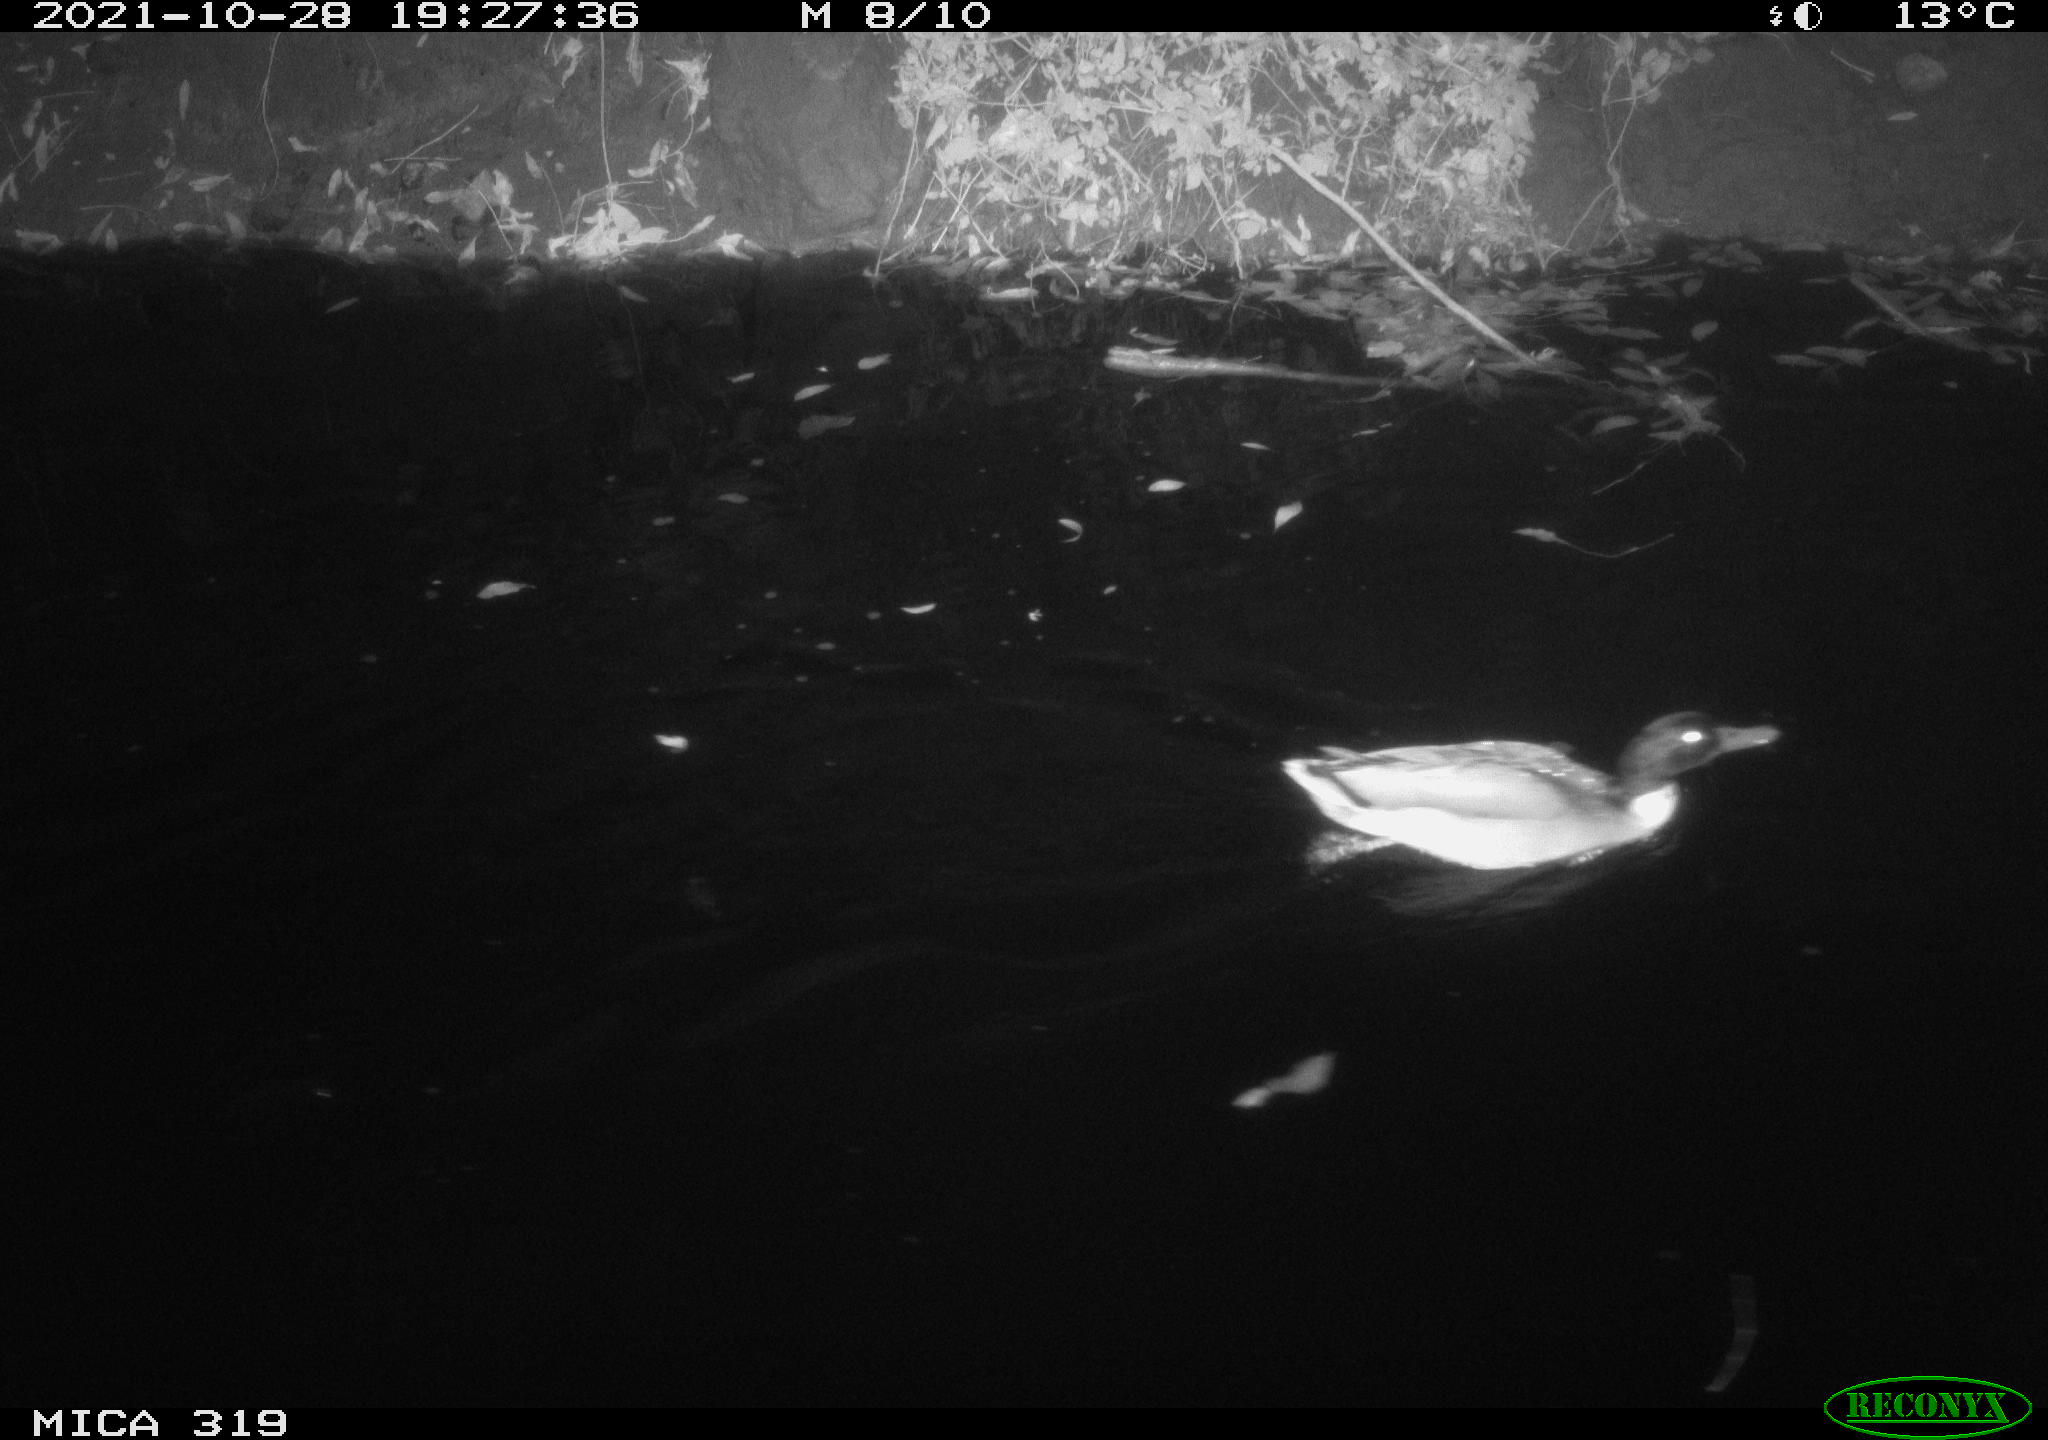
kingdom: Animalia
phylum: Chordata
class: Aves
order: Anseriformes
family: Anatidae
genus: Anas
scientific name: Anas platyrhynchos
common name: Mallard
